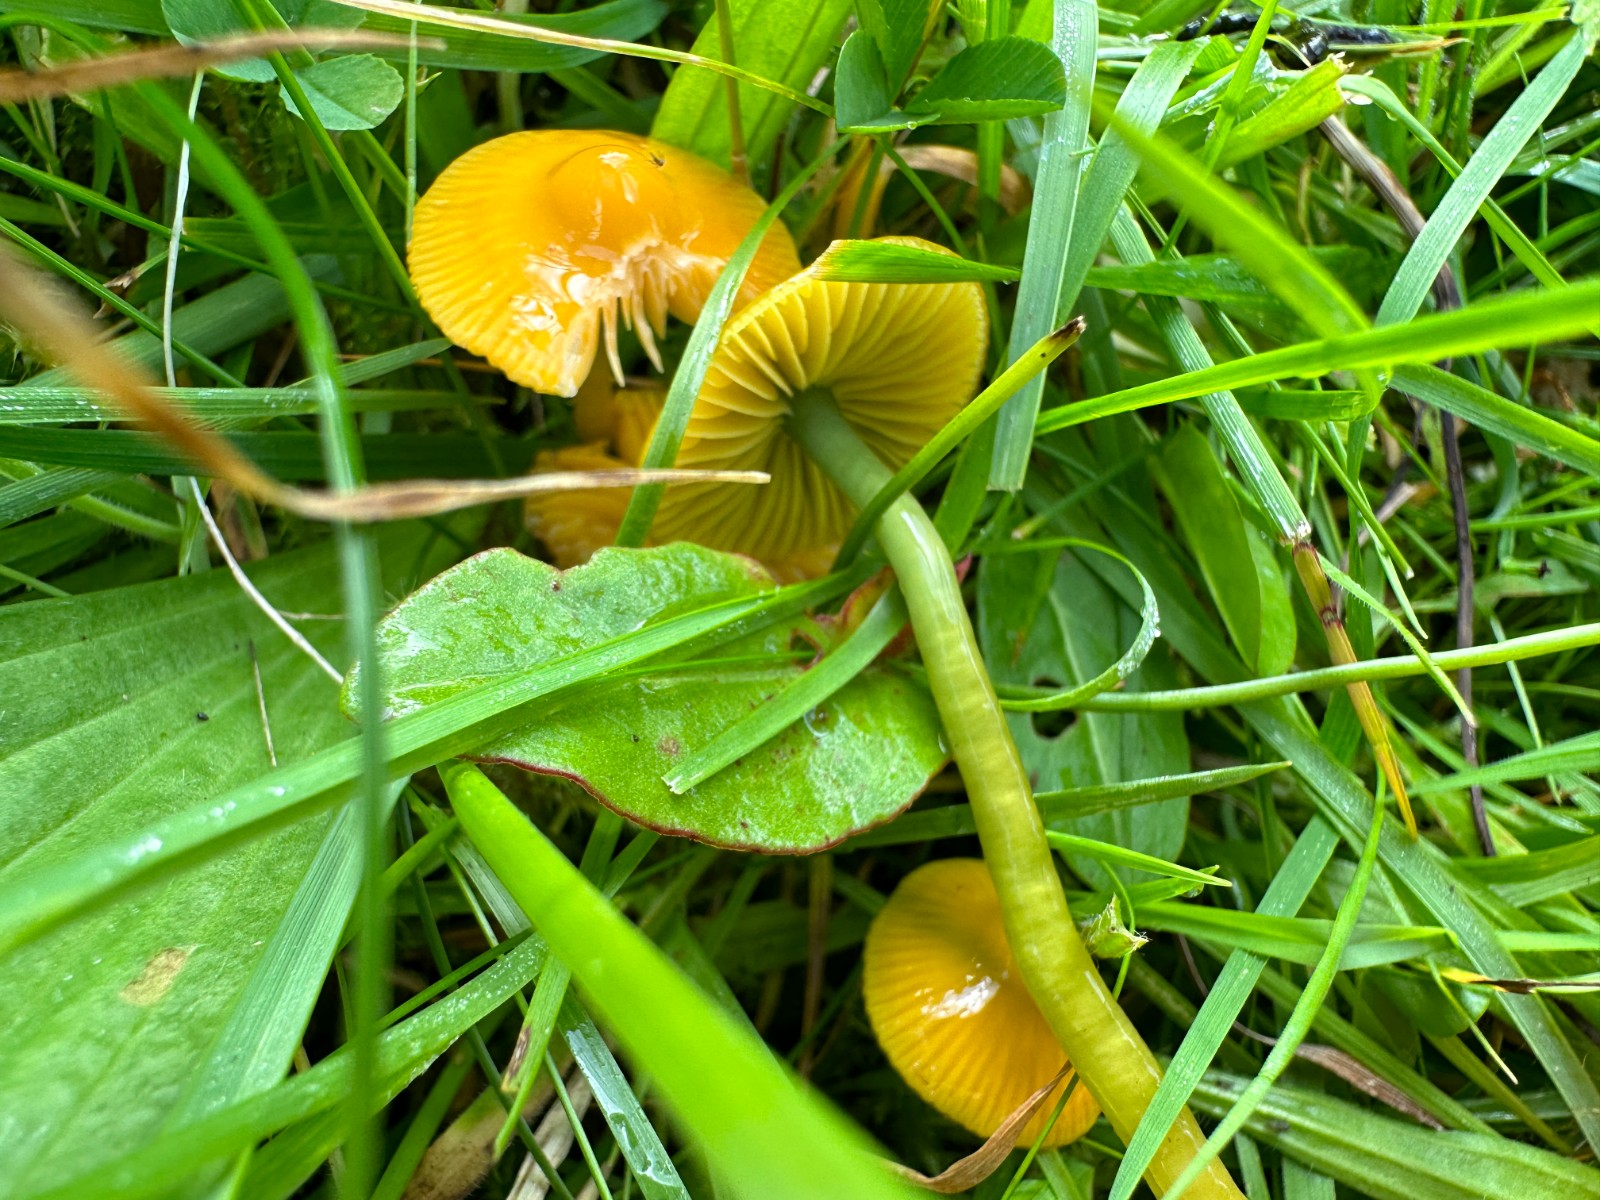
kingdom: Fungi
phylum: Basidiomycota
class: Agaricomycetes
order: Agaricales
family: Hygrophoraceae
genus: Gliophorus
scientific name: Gliophorus psittacinus
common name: papegøje-vokshat
